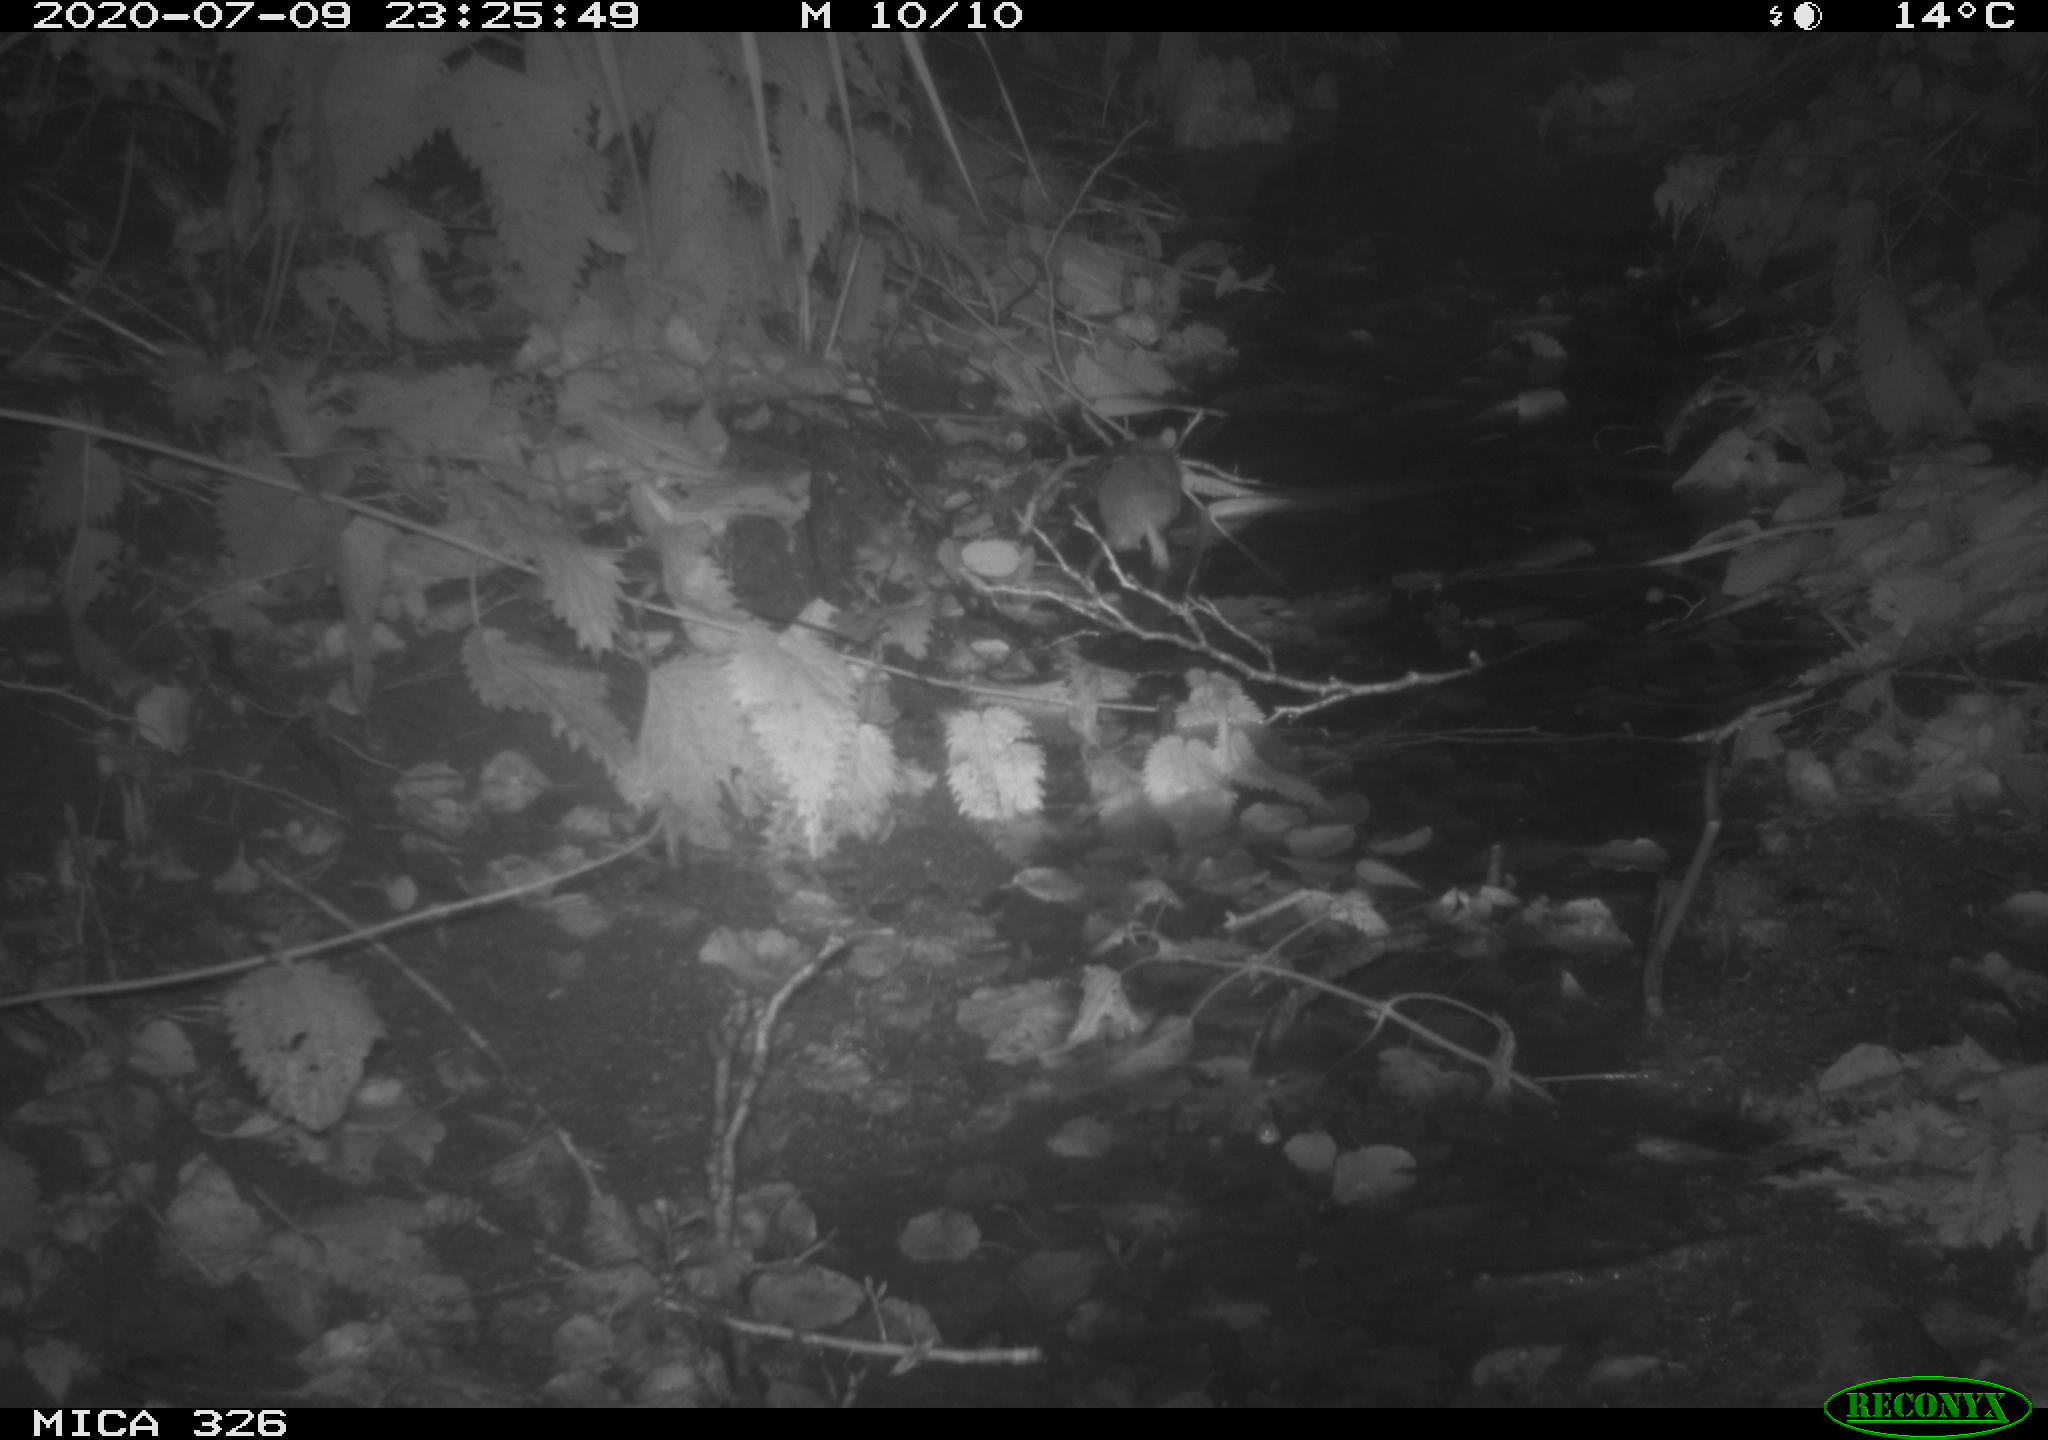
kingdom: Animalia
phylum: Chordata
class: Mammalia
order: Rodentia
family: Muridae
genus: Rattus
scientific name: Rattus norvegicus
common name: Brown rat
